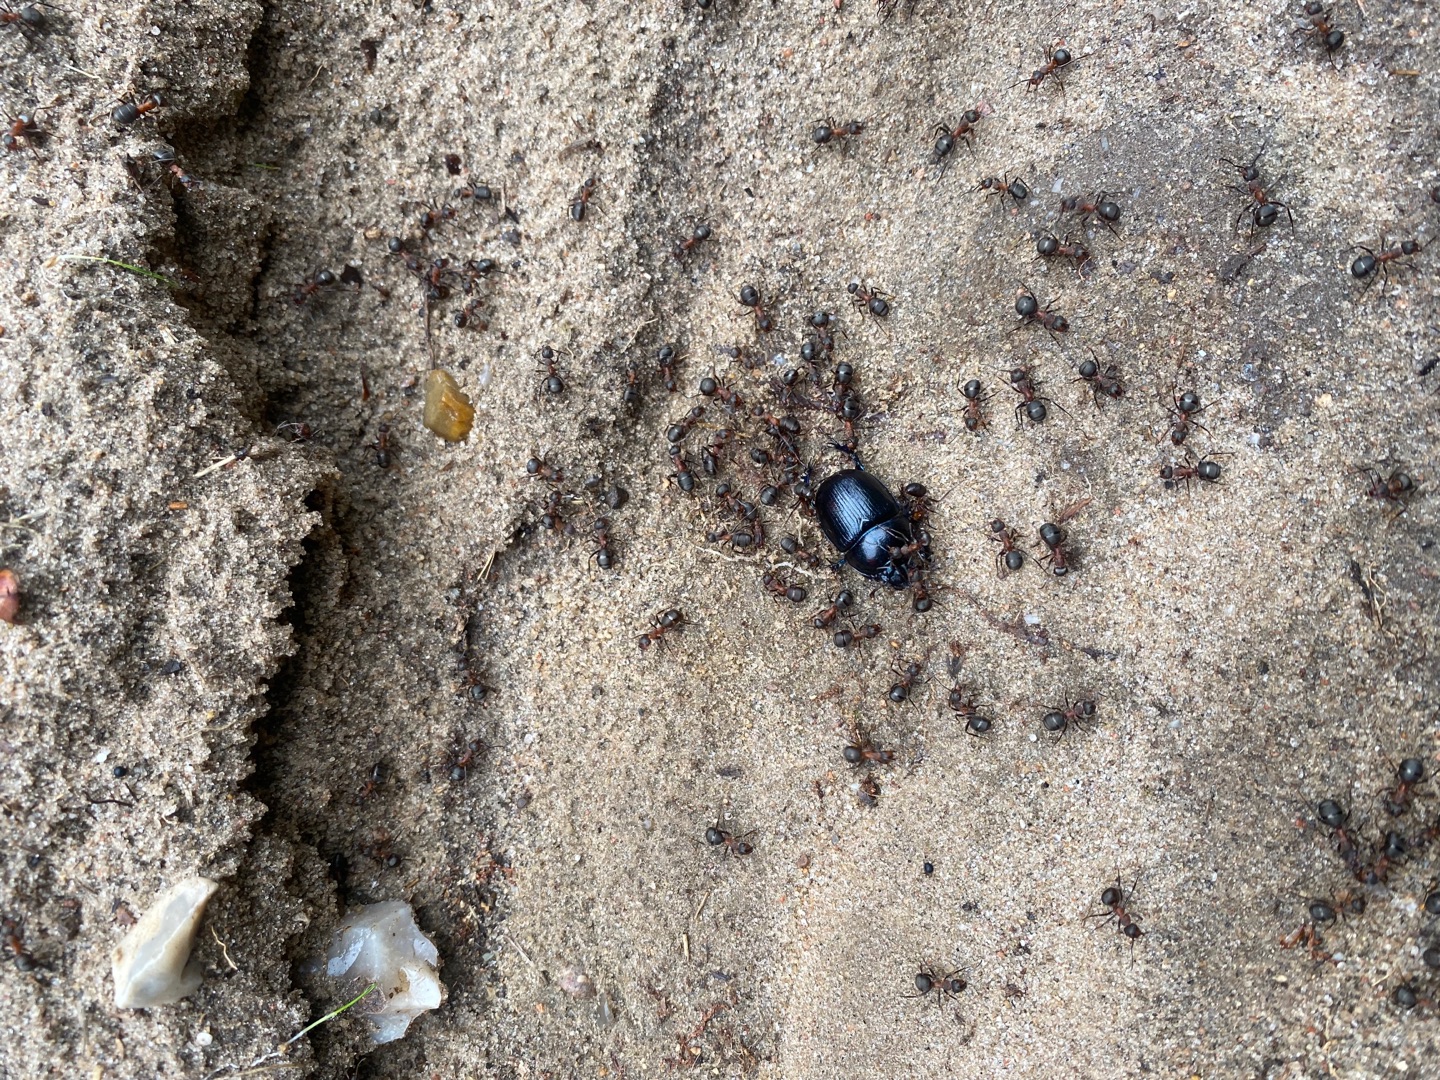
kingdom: Animalia
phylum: Arthropoda
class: Insecta
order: Coleoptera
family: Geotrupidae
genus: Anoplotrupes
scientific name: Anoplotrupes stercorosus
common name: Skovskarnbasse
